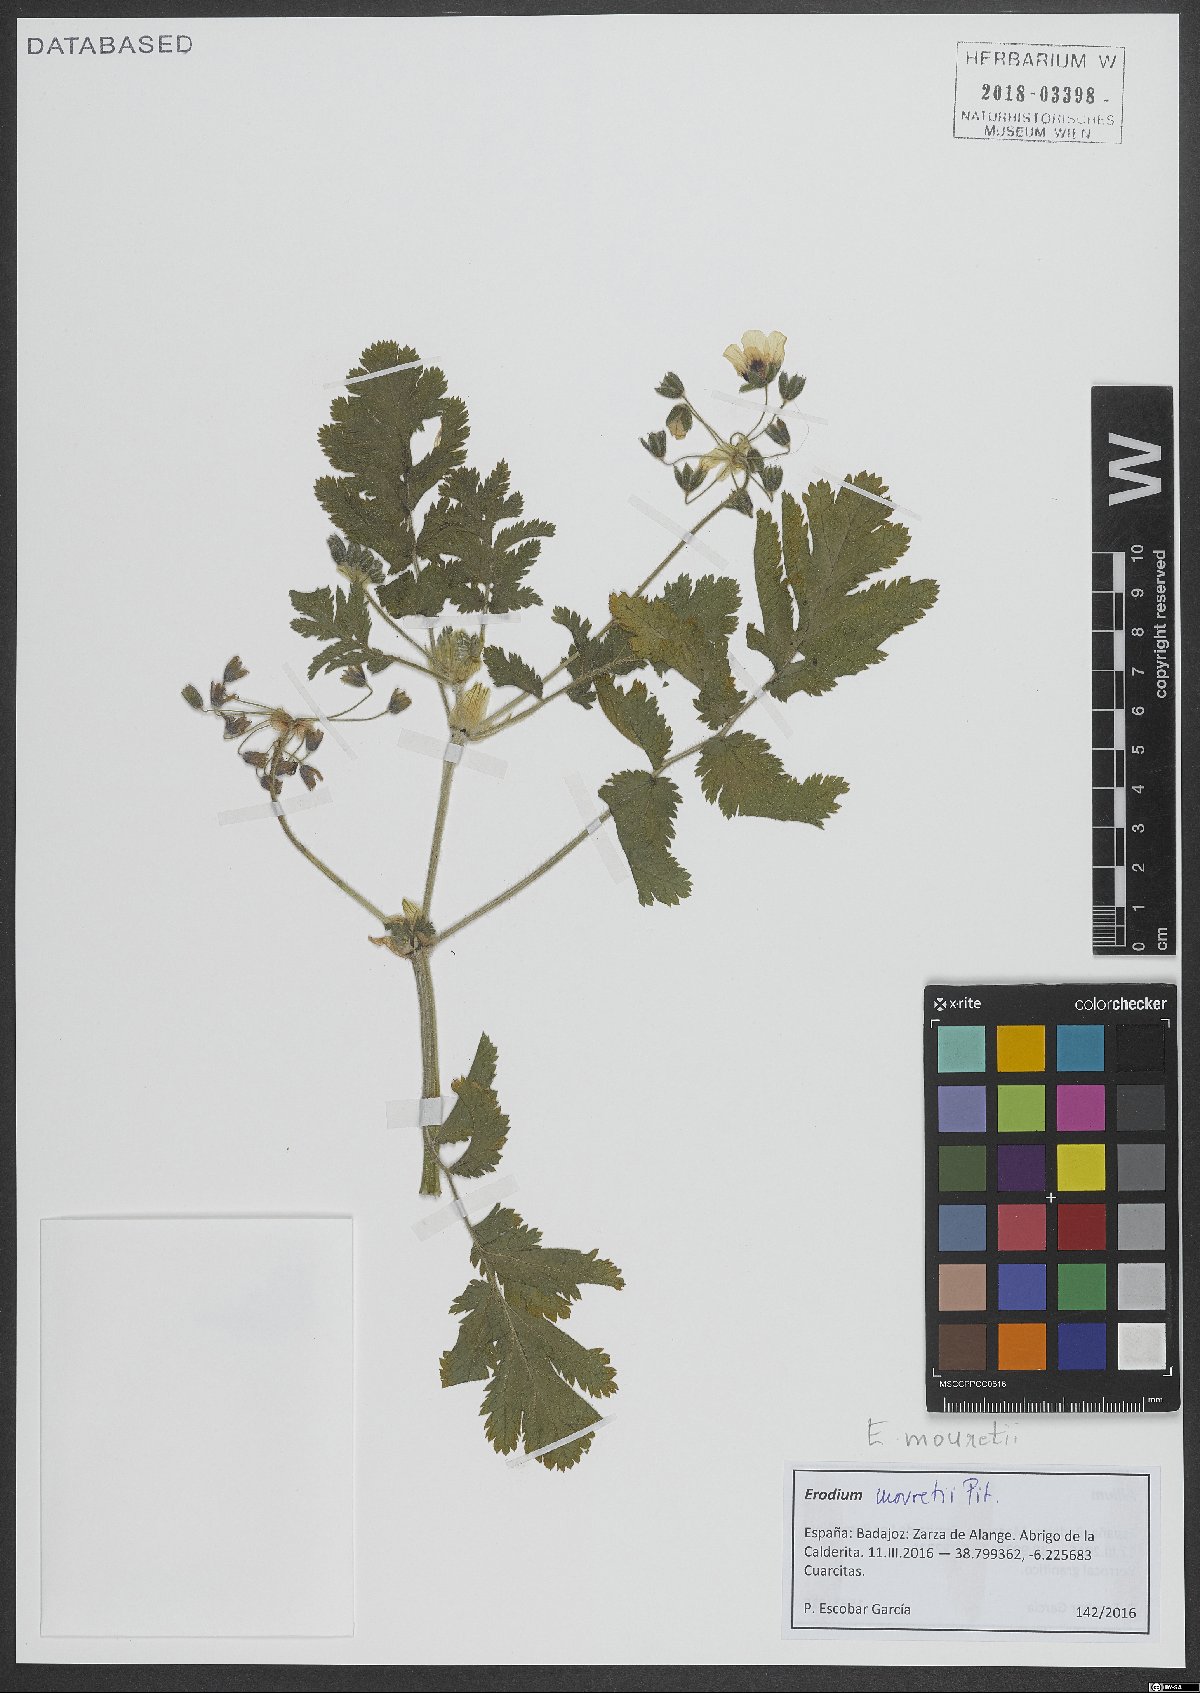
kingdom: Plantae
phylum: Tracheophyta
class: Magnoliopsida
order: Geraniales
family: Geraniaceae
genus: Erodium
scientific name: Erodium mouretii
